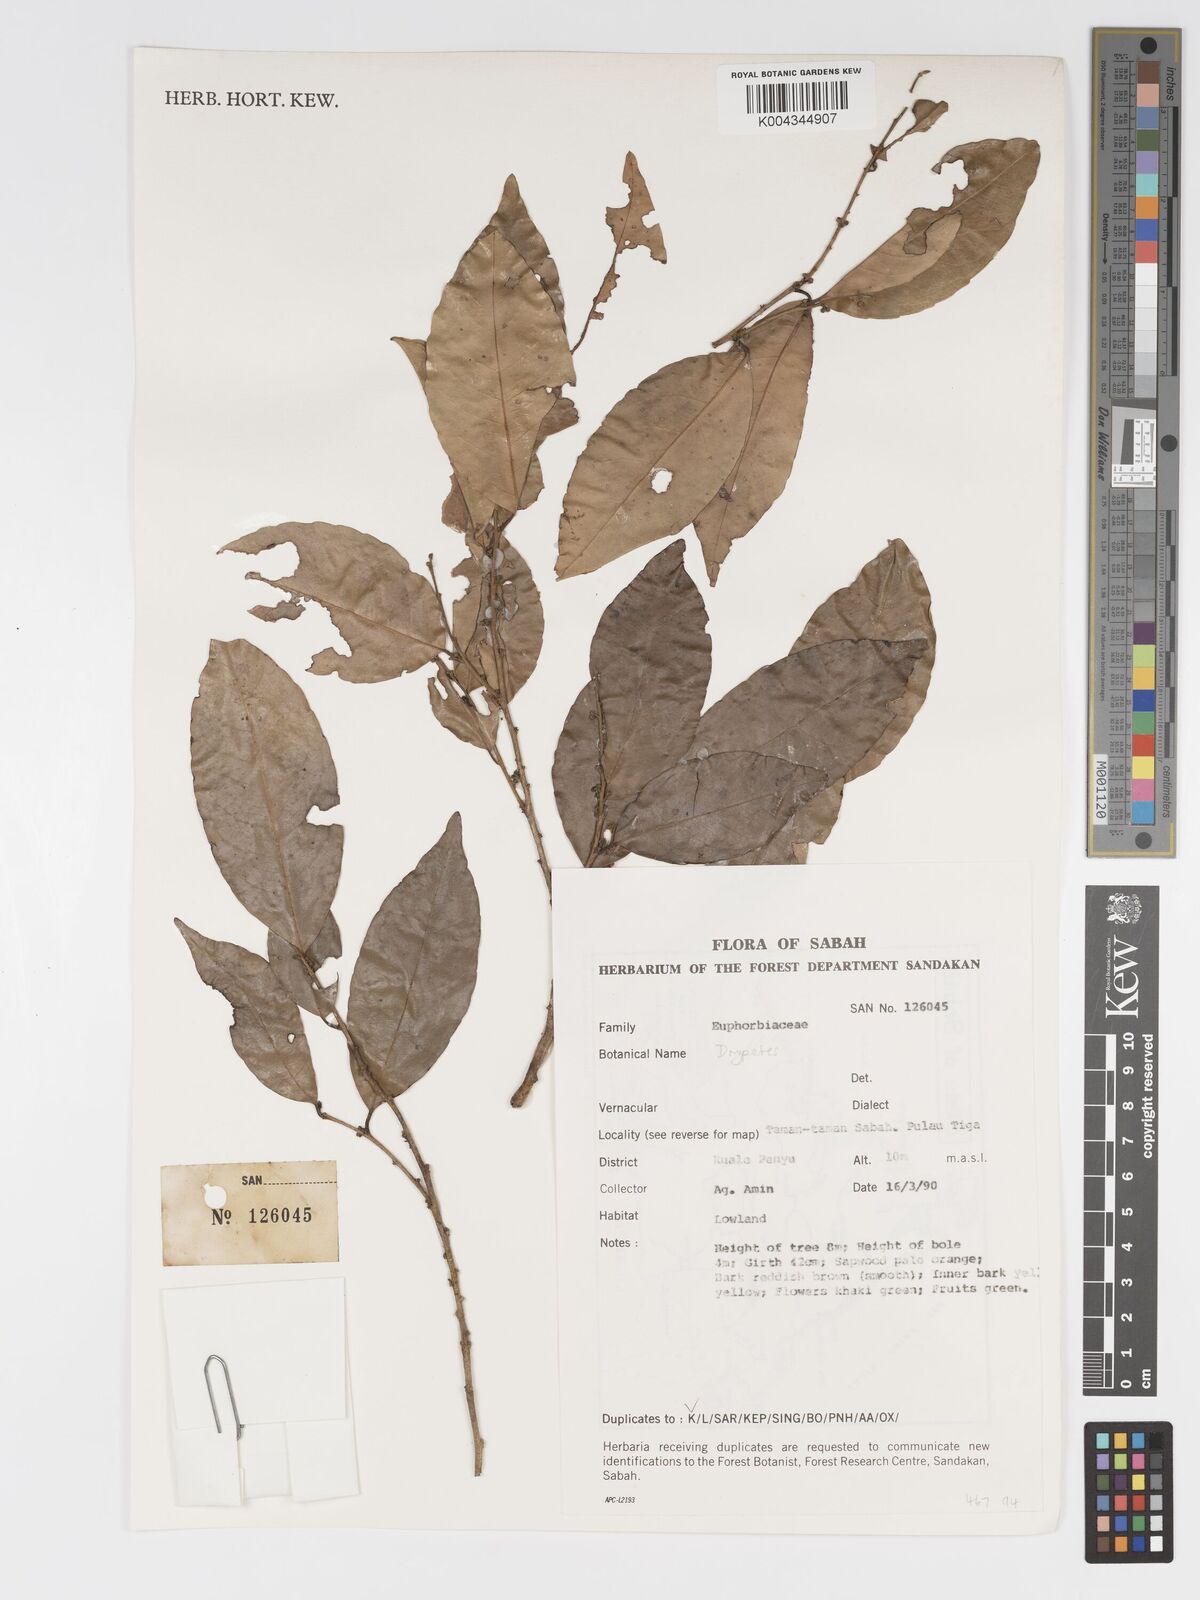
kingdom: Plantae
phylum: Tracheophyta
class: Magnoliopsida
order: Malpighiales
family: Putranjivaceae
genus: Drypetes
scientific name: Drypetes
